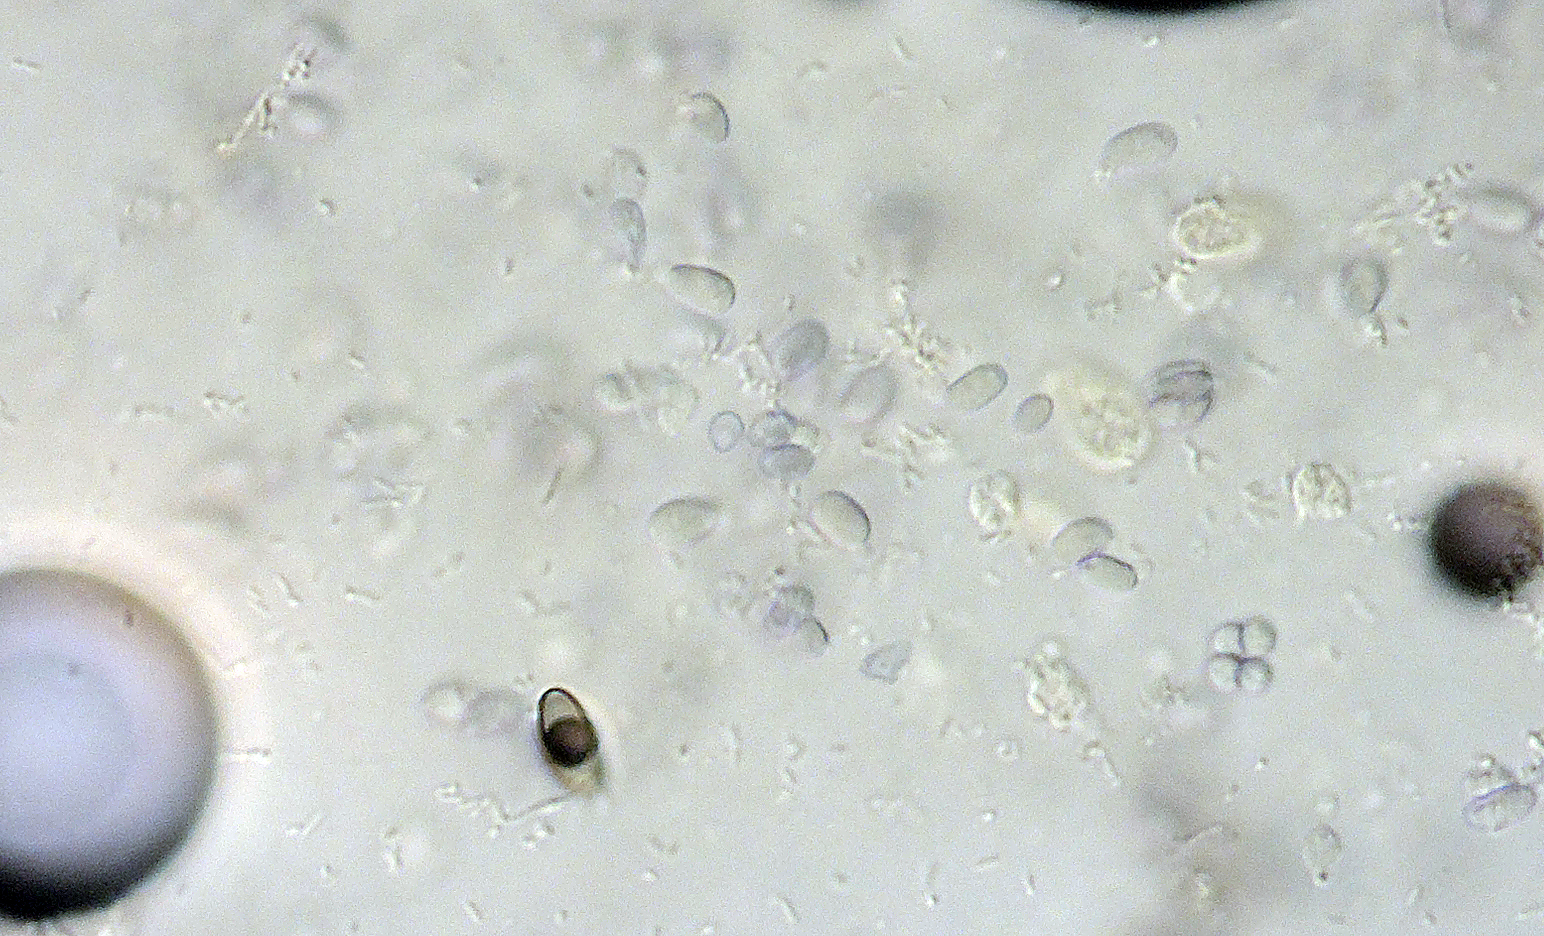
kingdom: Fungi
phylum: Basidiomycota
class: Agaricomycetes
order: Agaricales
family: Clavariaceae
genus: Mucronella
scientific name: Mucronella
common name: hængepig
